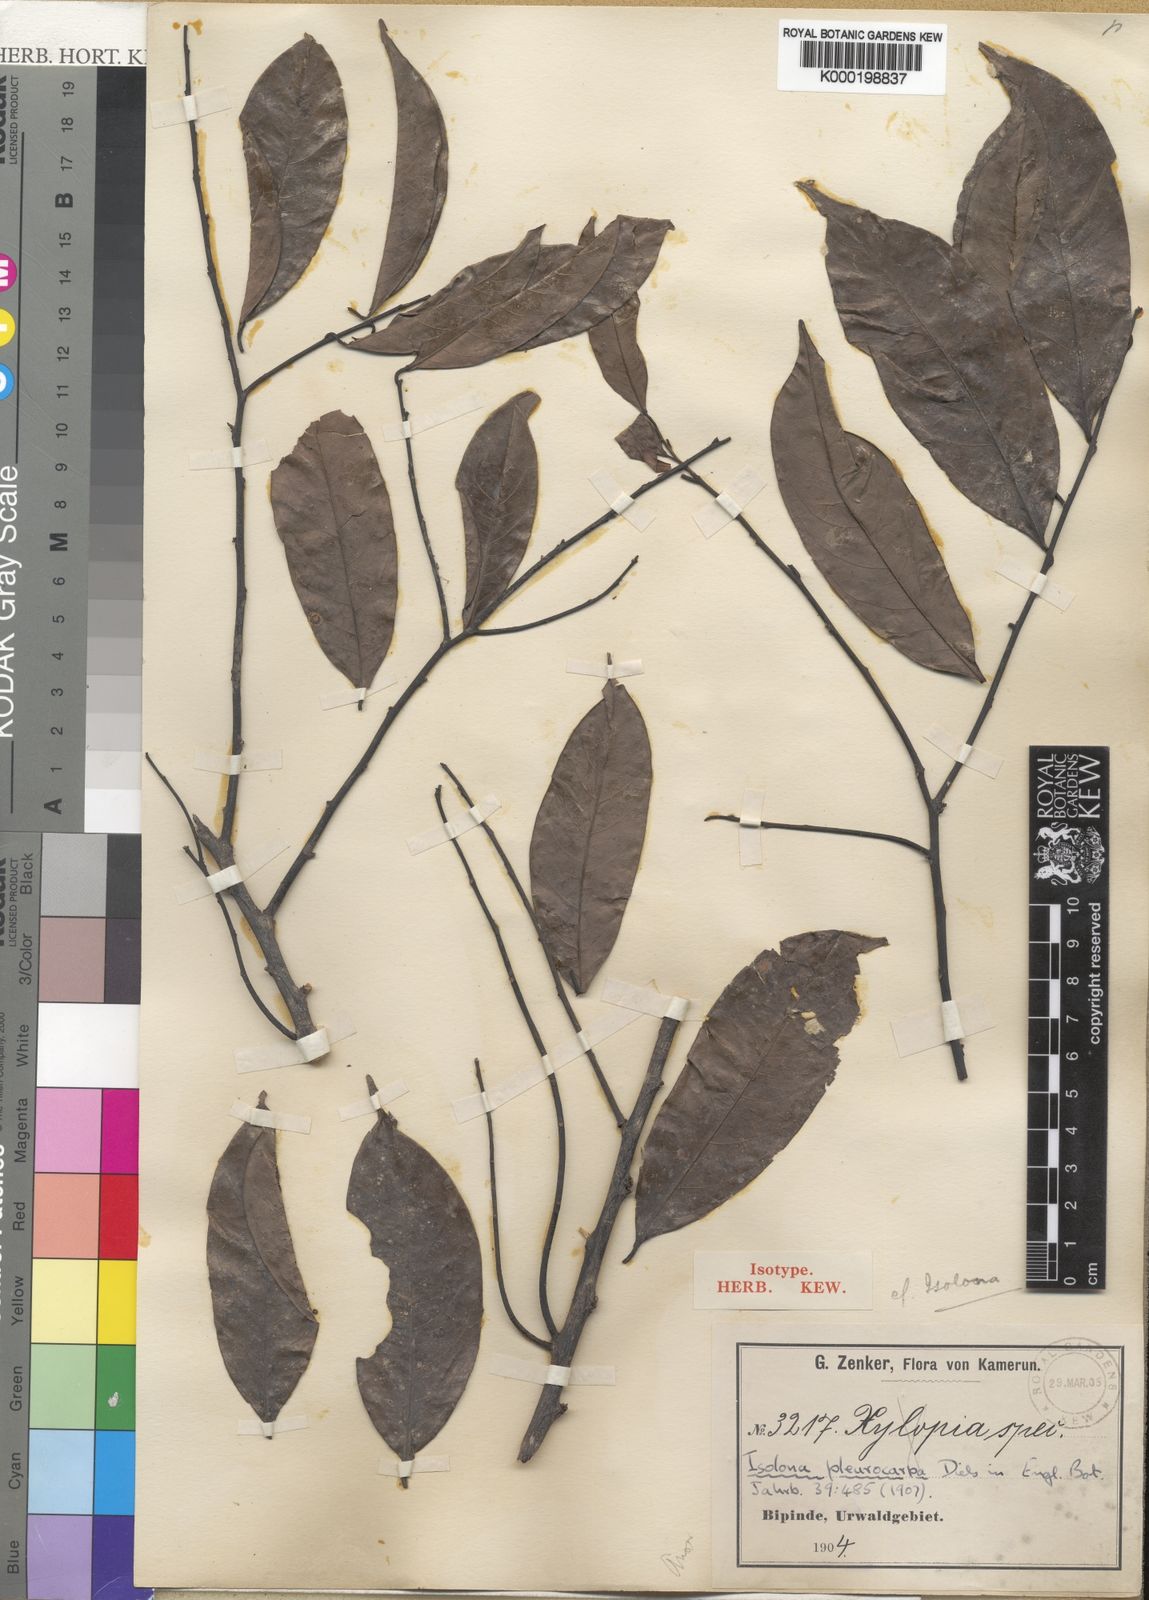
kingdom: Plantae
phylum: Tracheophyta
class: Magnoliopsida
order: Magnoliales
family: Annonaceae
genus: Isolona
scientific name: Isolona pleurocarpa
